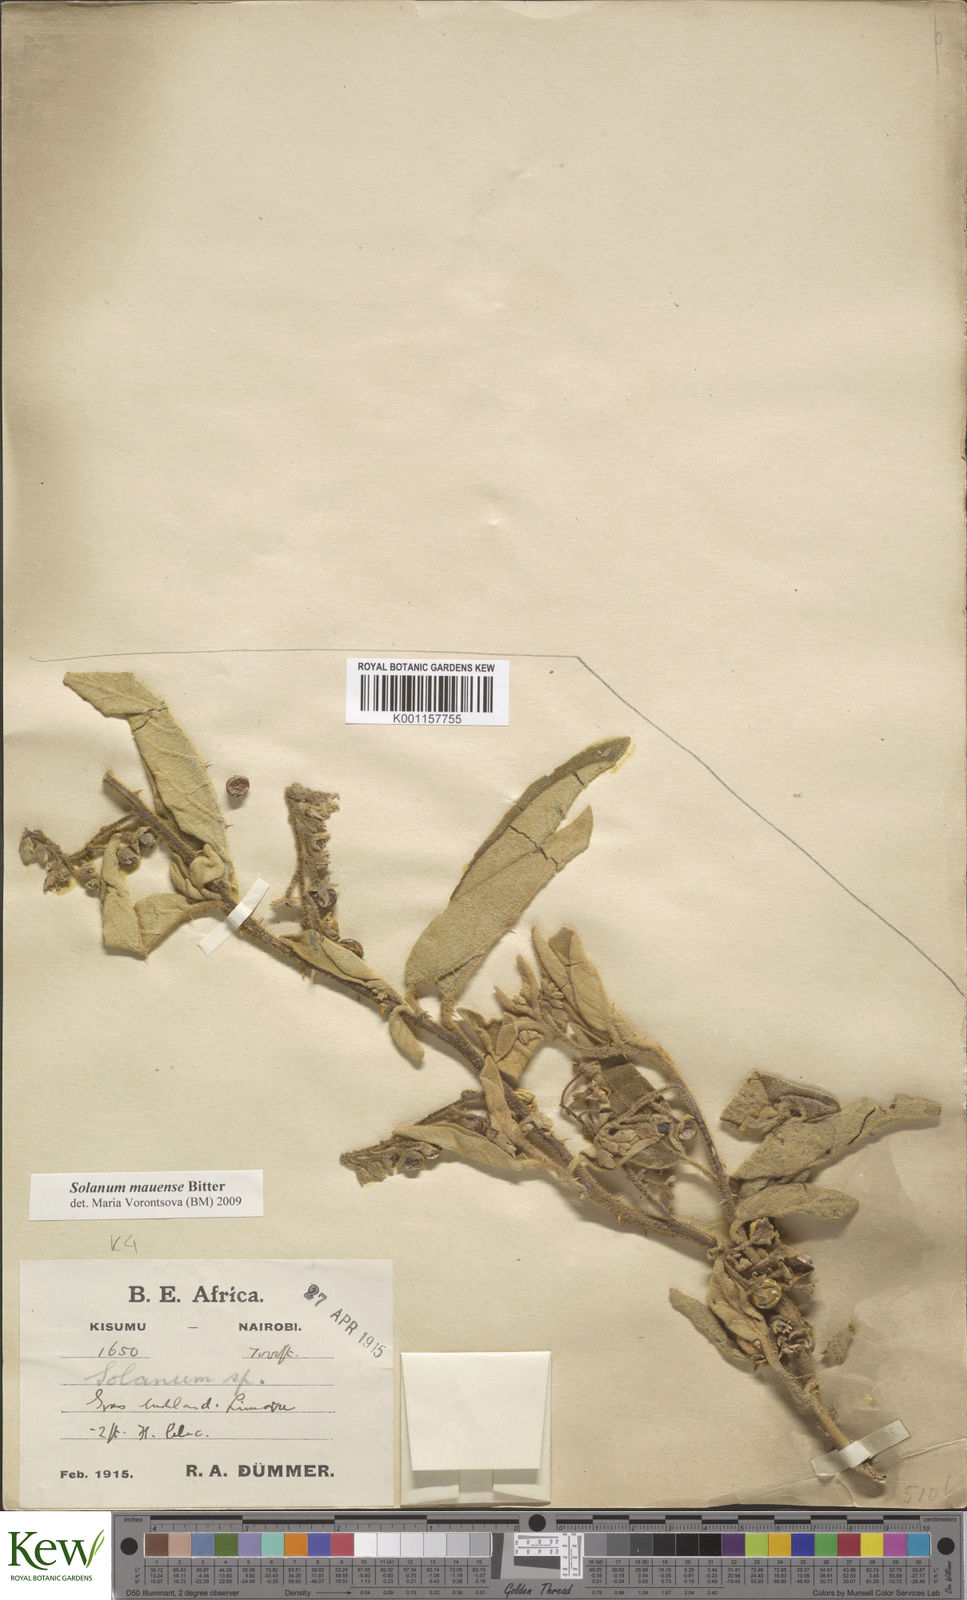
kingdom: Plantae
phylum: Tracheophyta
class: Magnoliopsida
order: Solanales
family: Solanaceae
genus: Solanum
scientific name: Solanum mauense
